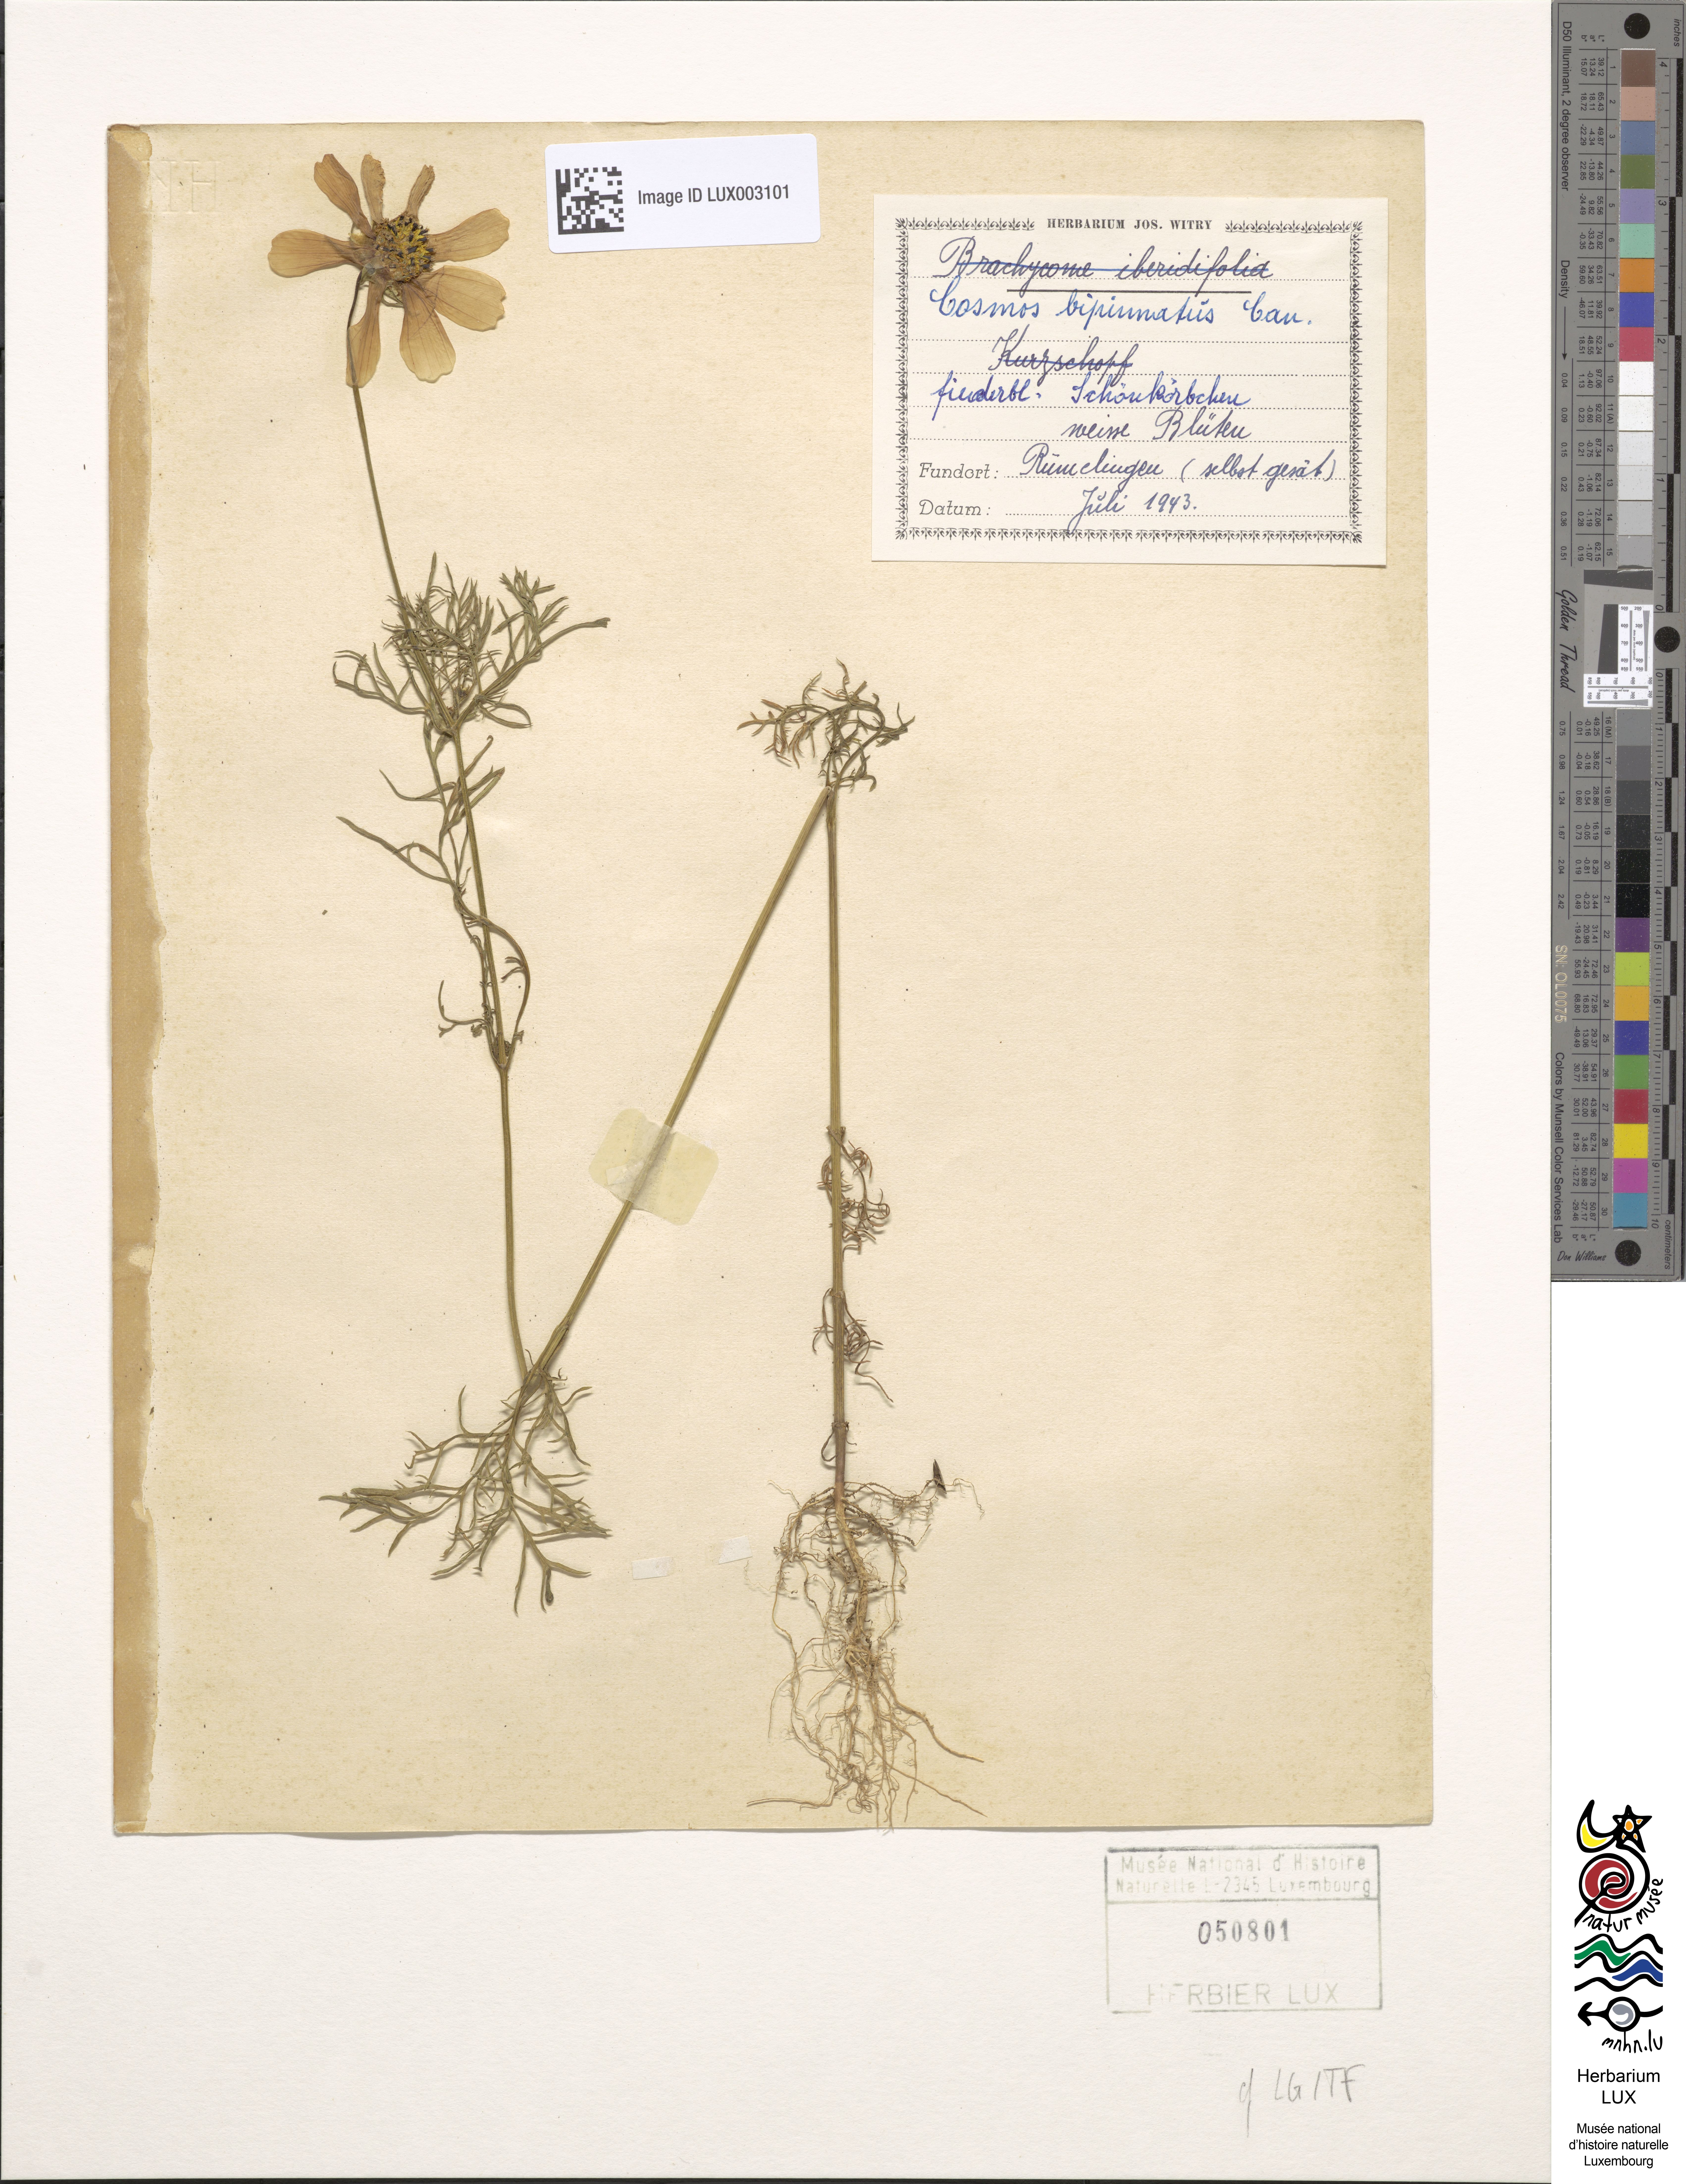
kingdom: Plantae
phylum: Tracheophyta
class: Magnoliopsida
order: Asterales
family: Asteraceae
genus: Cosmos
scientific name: Cosmos bipinnatus
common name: Garden cosmos
